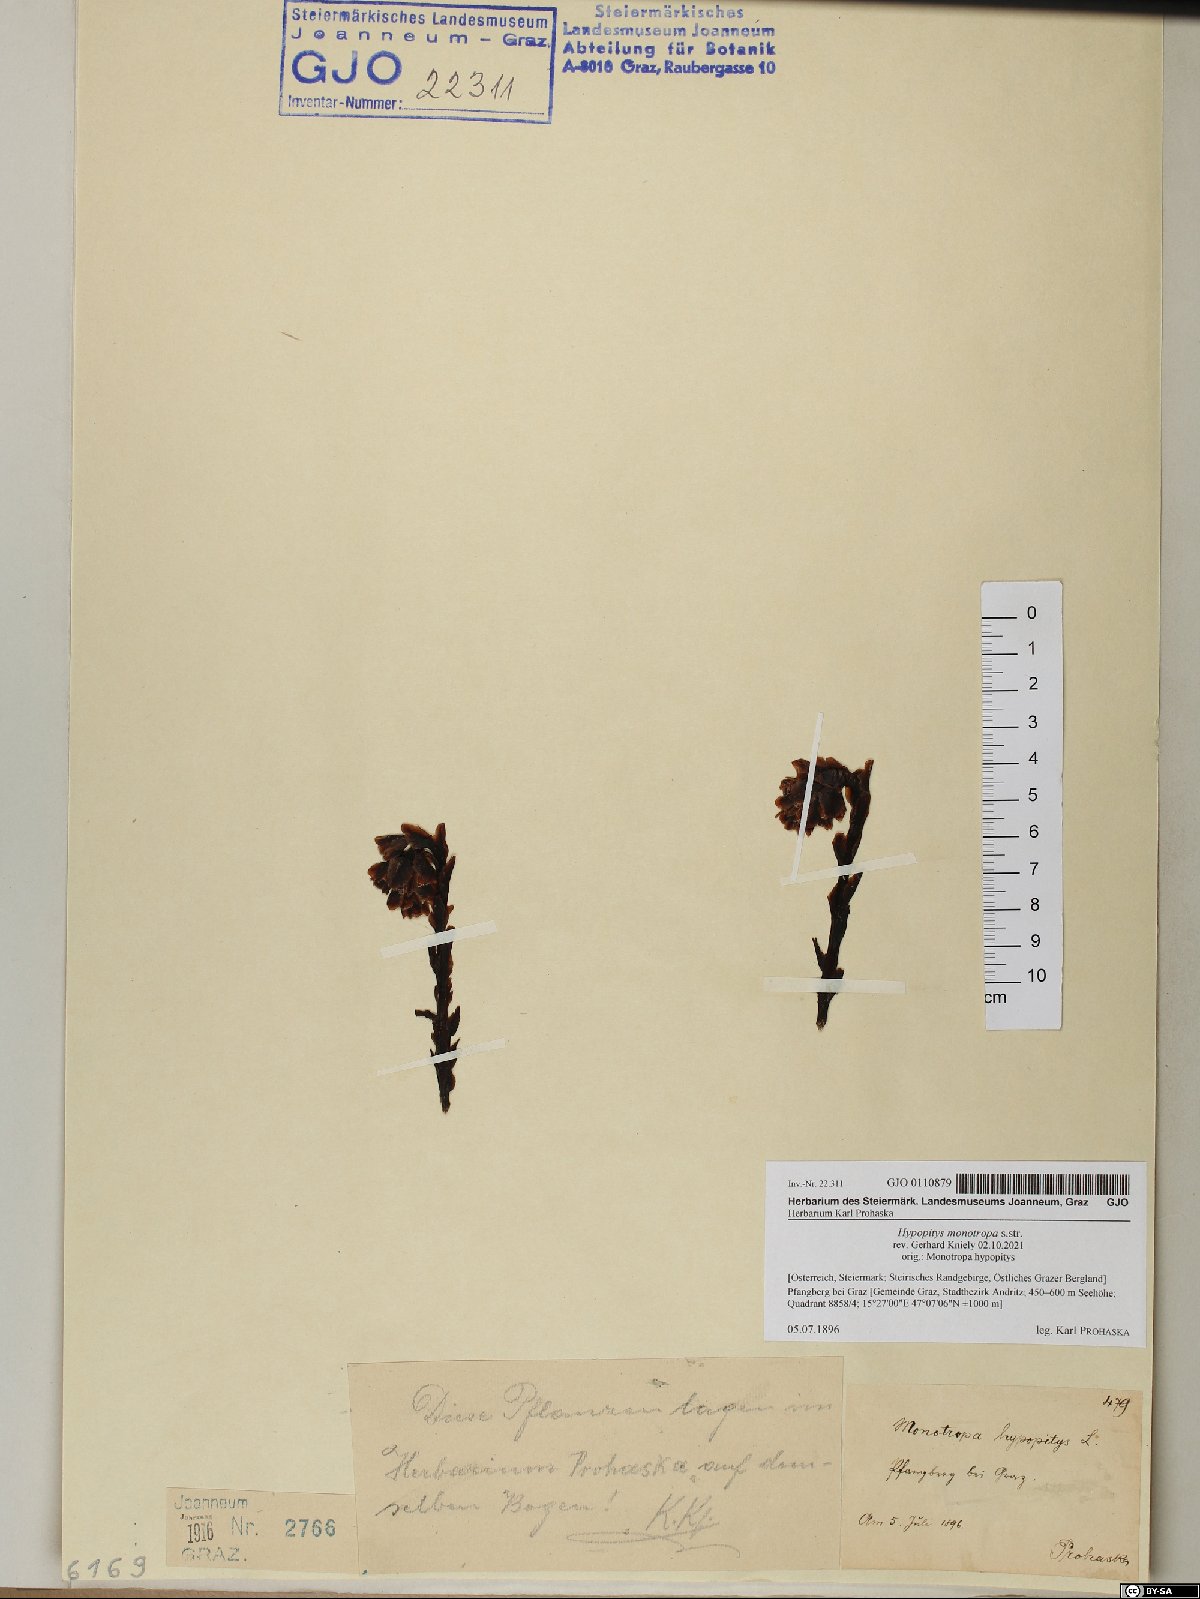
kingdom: Plantae
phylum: Tracheophyta
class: Magnoliopsida
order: Ericales
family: Ericaceae
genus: Hypopitys
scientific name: Hypopitys monotropa
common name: Yellow bird's-nest
